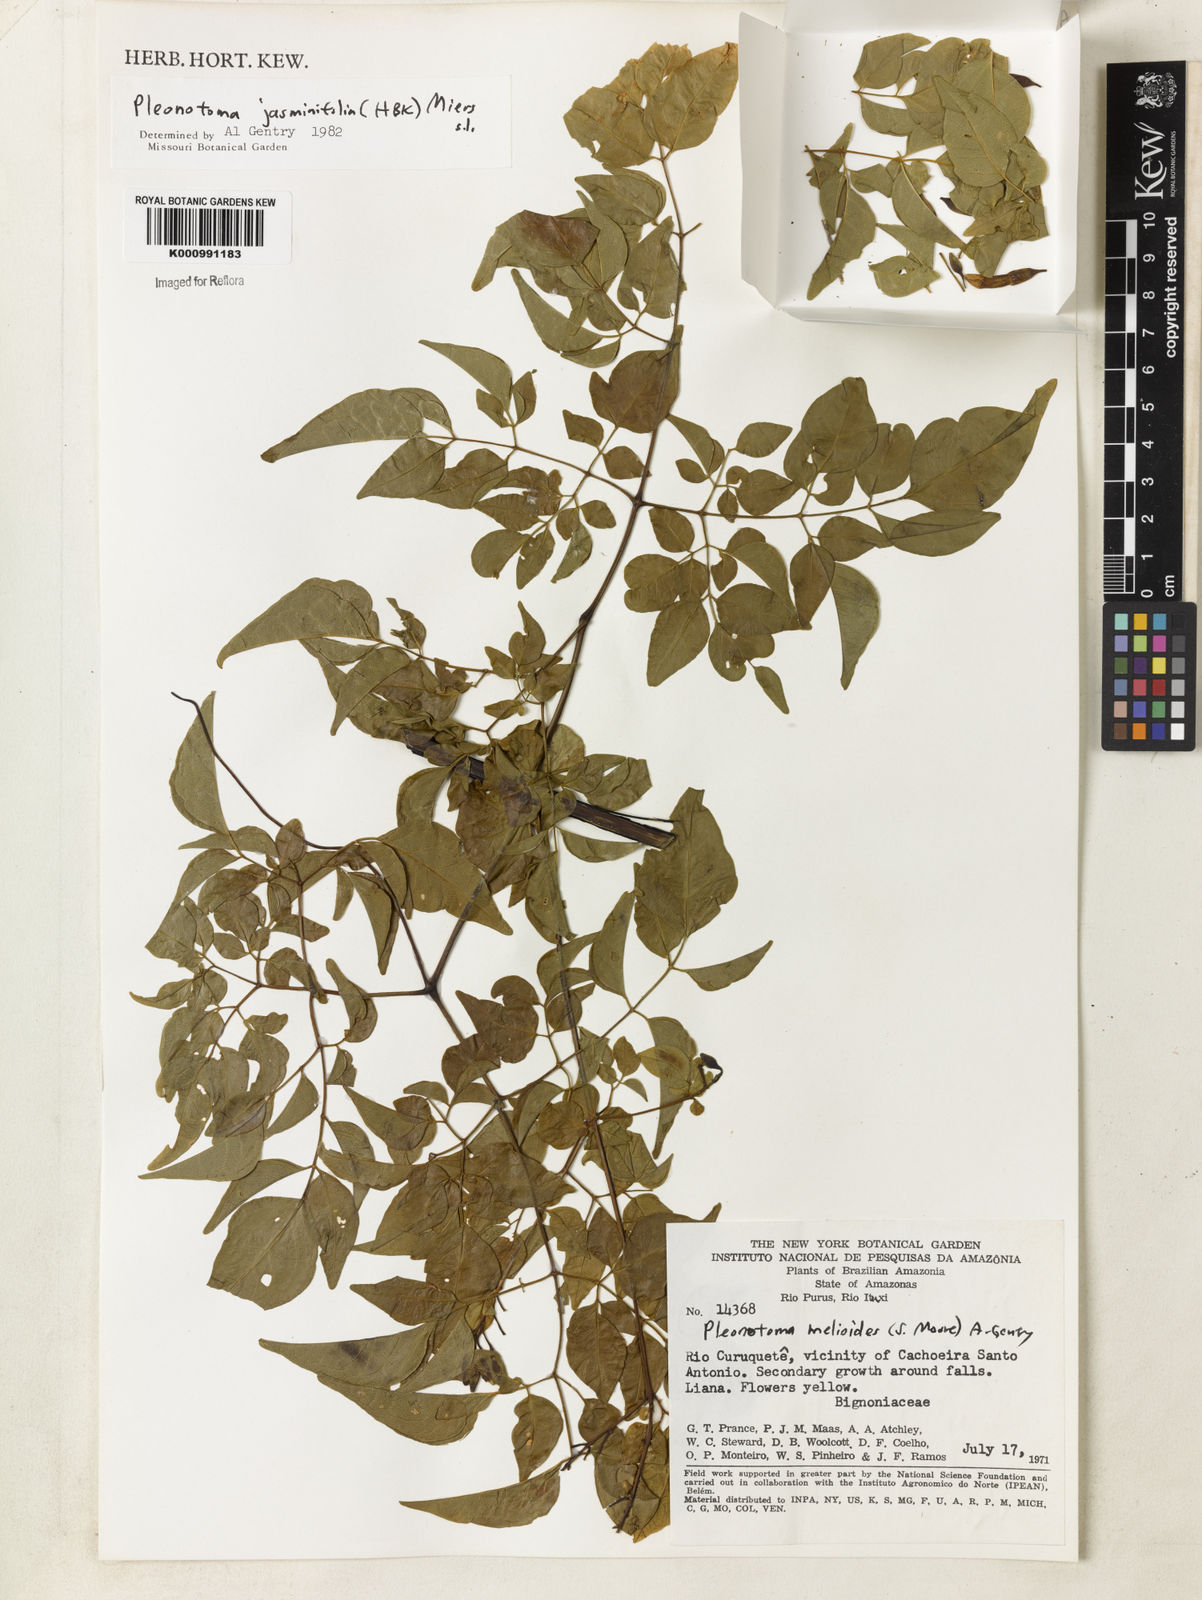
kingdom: Plantae
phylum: Tracheophyta
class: Magnoliopsida
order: Lamiales
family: Bignoniaceae
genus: Pleonotoma
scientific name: Pleonotoma melioides
